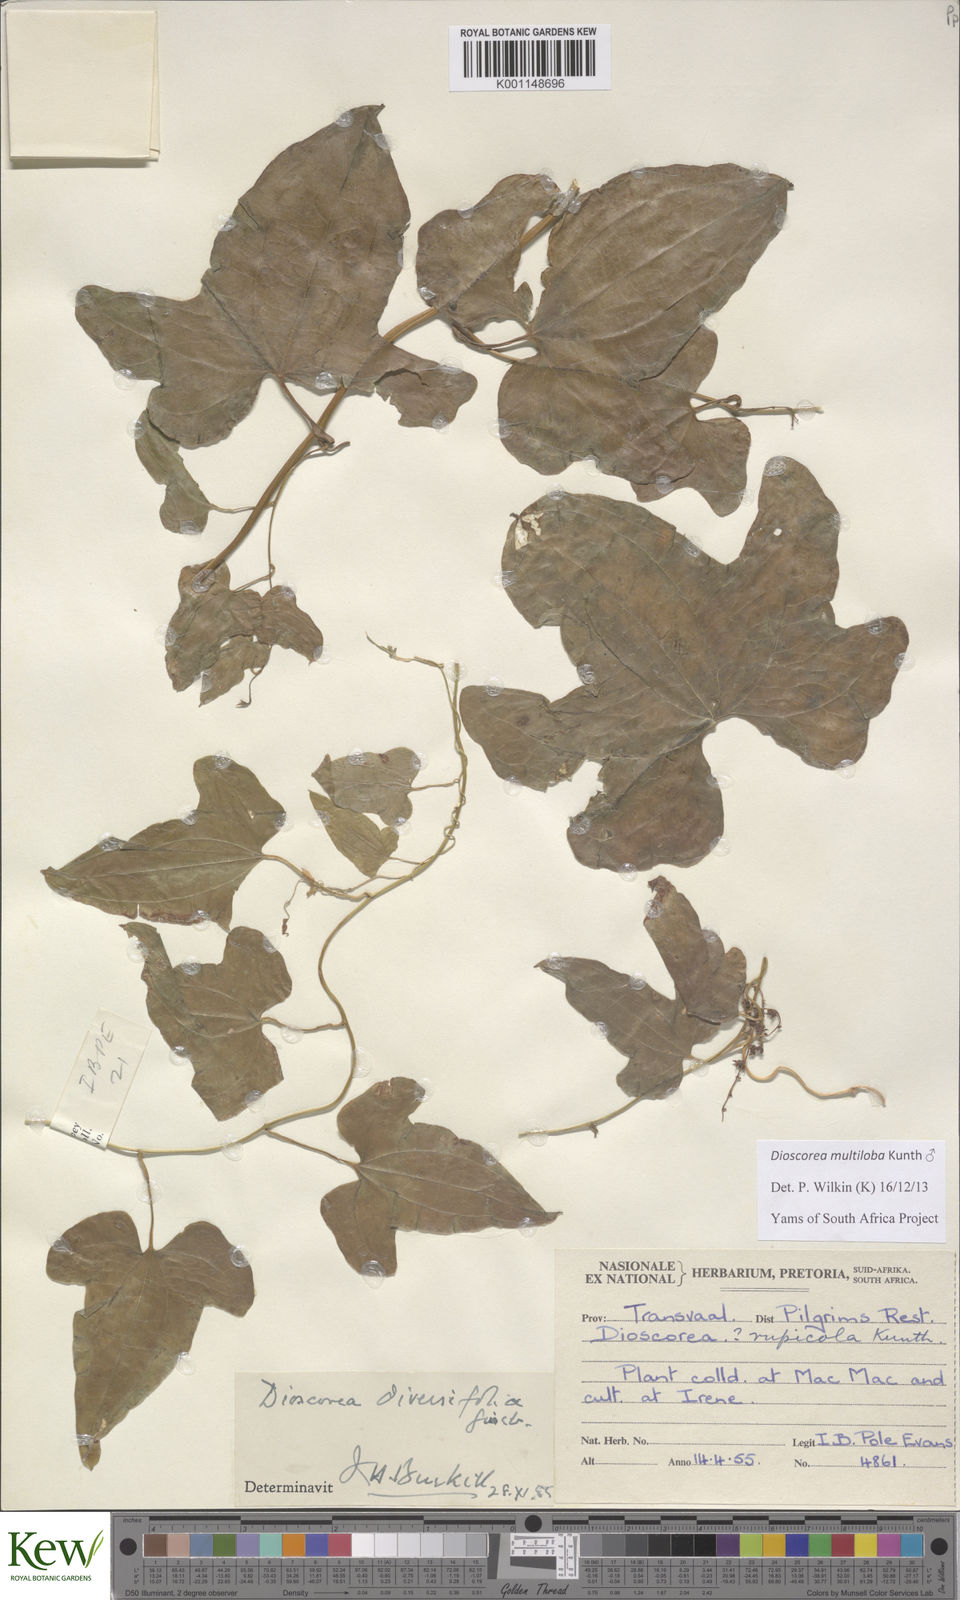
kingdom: Plantae
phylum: Tracheophyta
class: Liliopsida
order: Dioscoreales
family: Dioscoreaceae
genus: Dioscorea
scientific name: Dioscorea multiloba
